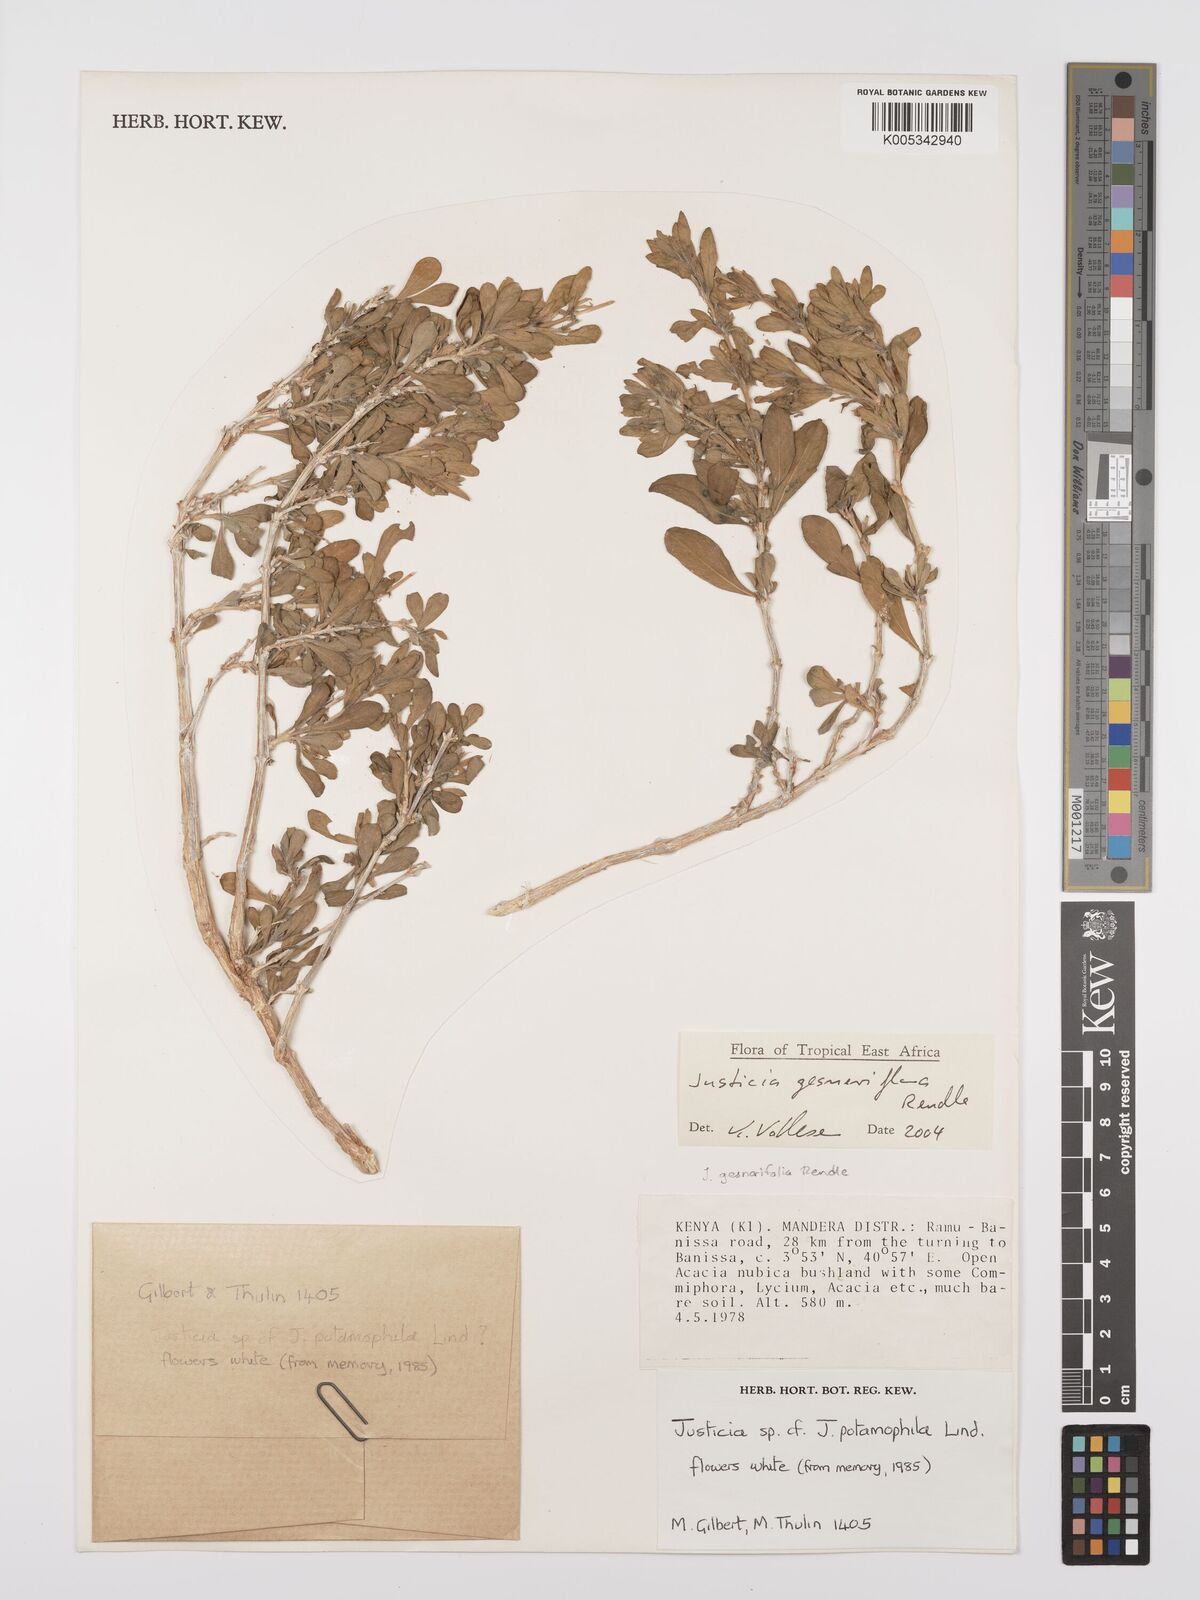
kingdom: Plantae
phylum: Tracheophyta
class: Magnoliopsida
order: Lamiales
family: Acanthaceae
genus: Justicia
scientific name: Justicia gesneriflora
